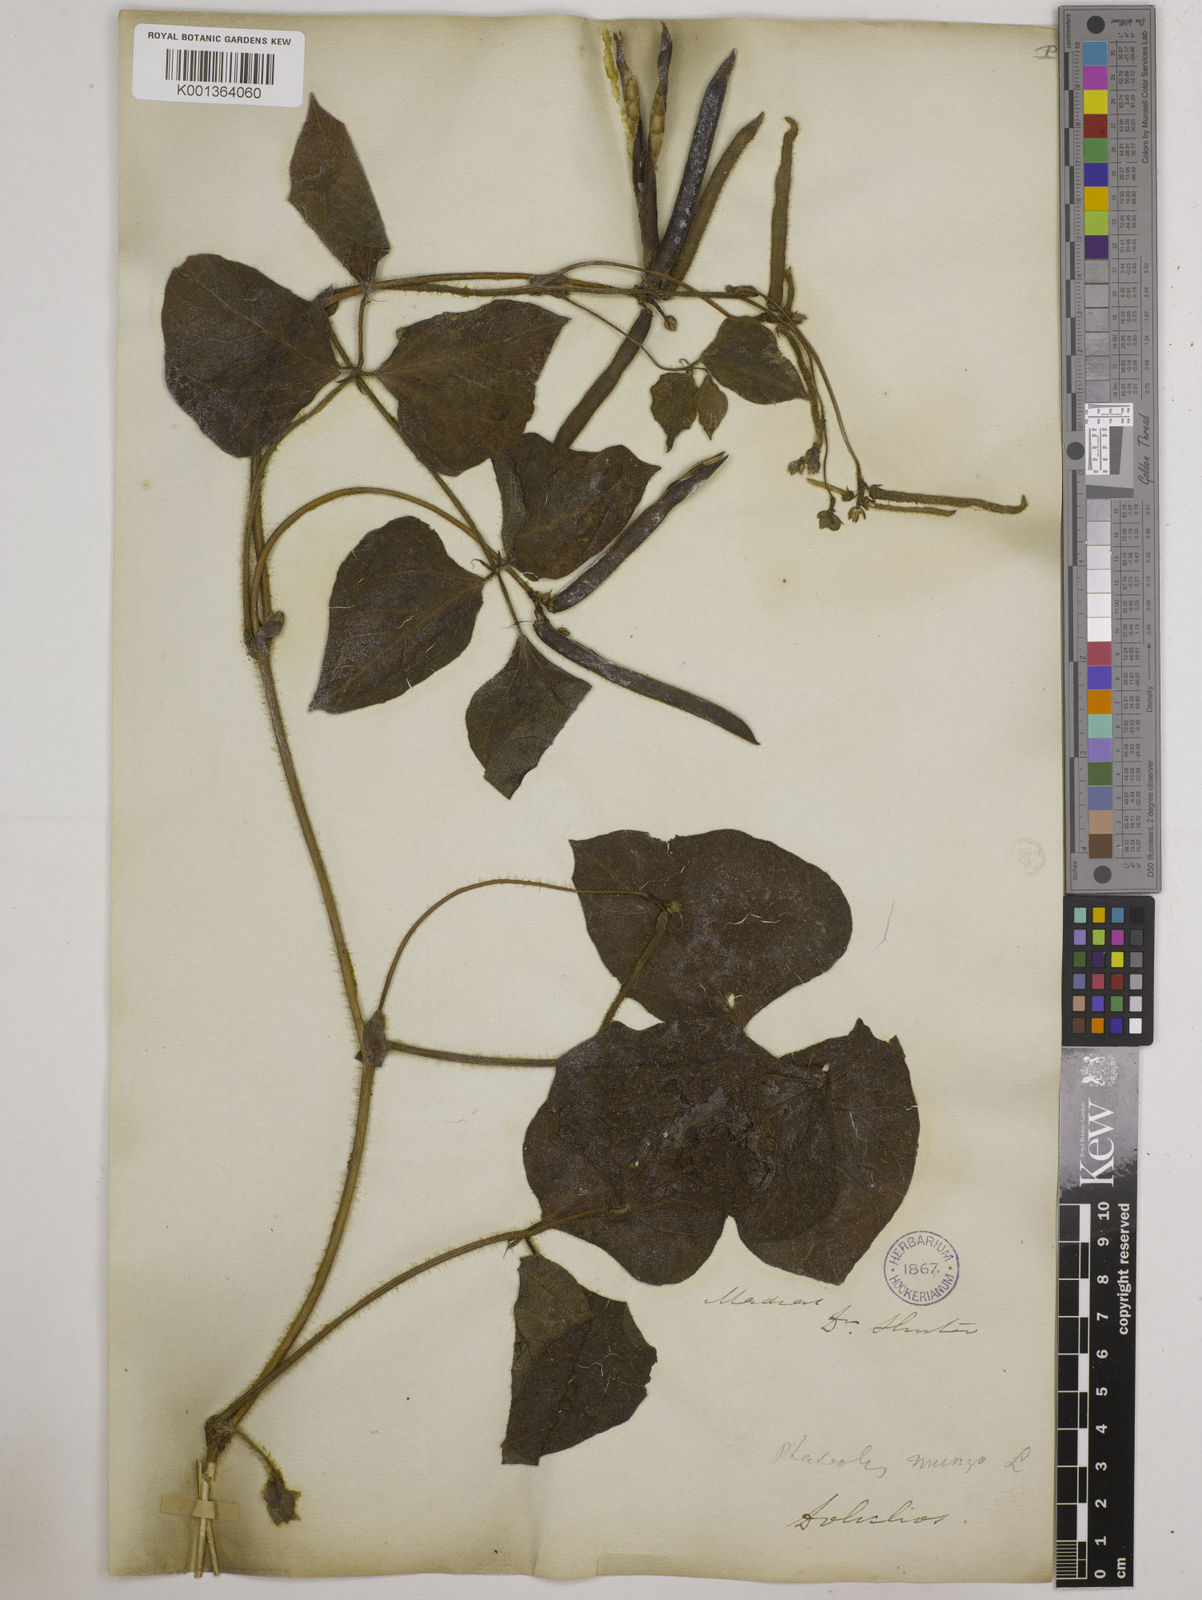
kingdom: Plantae
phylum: Tracheophyta
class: Magnoliopsida
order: Fabales
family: Fabaceae
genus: Vigna
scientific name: Vigna radiata
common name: Mung-bean
